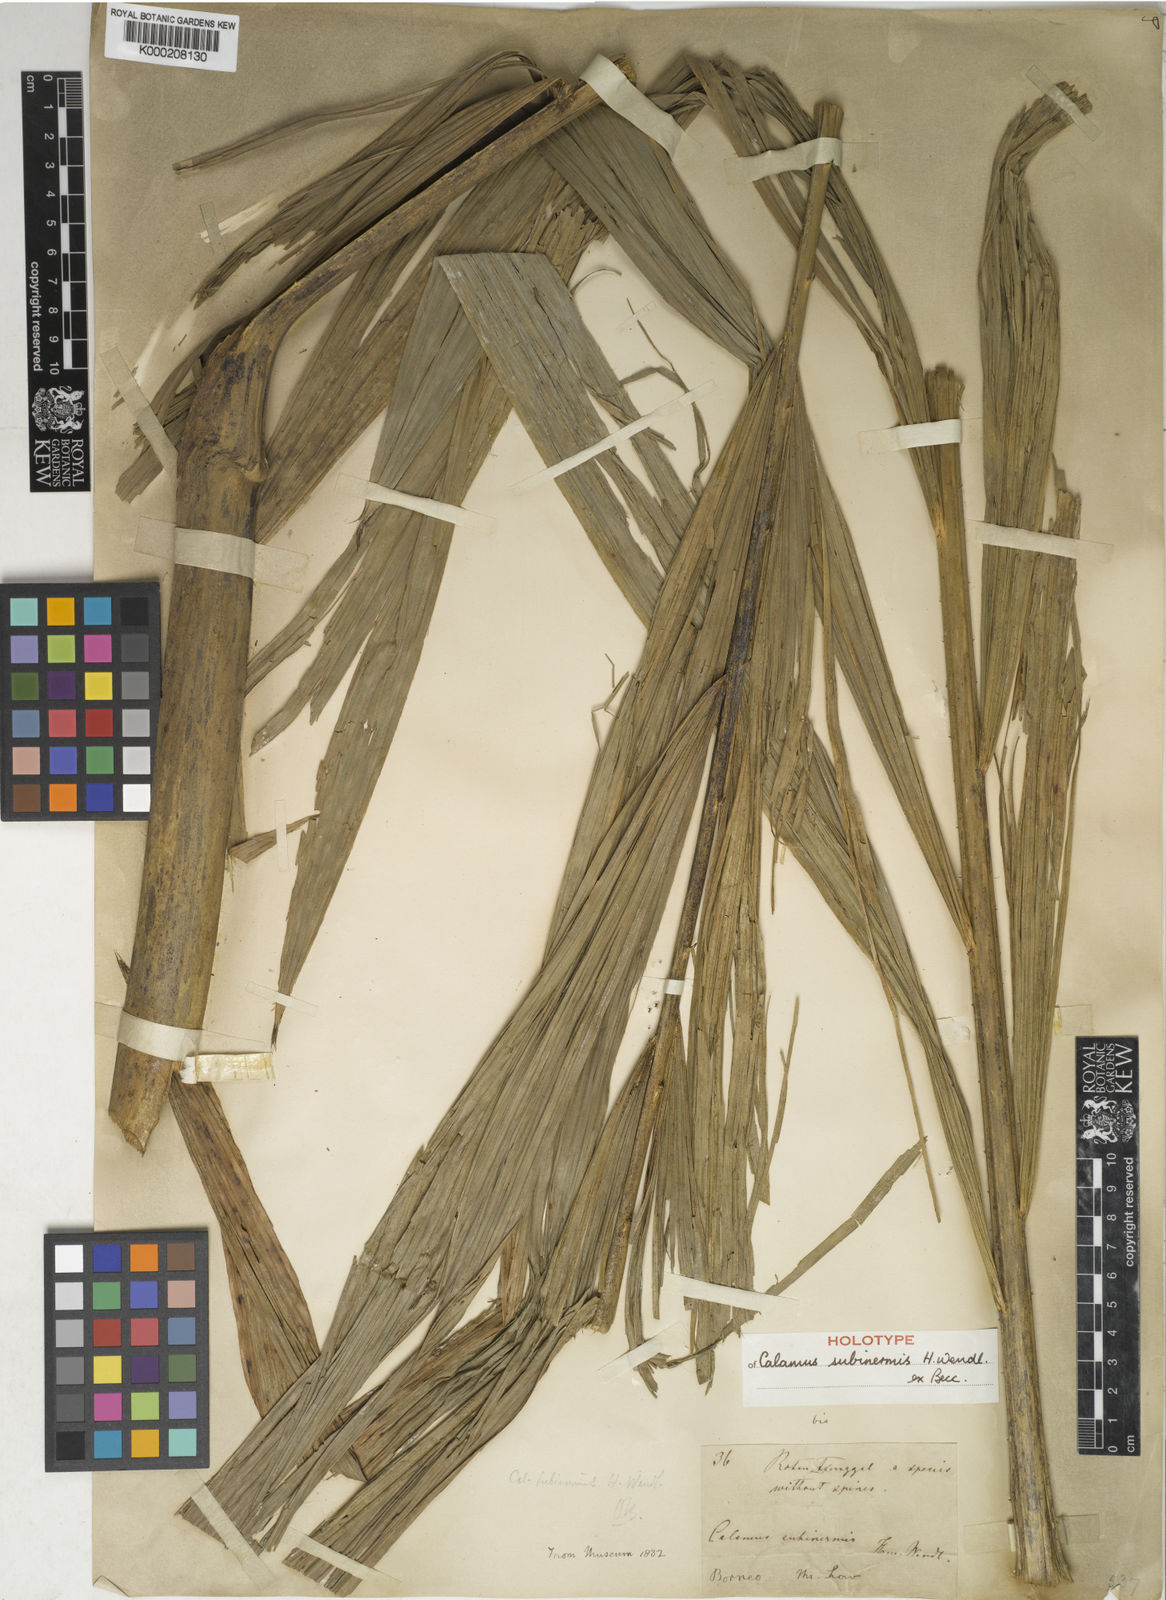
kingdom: Plantae
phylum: Tracheophyta
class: Liliopsida
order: Arecales
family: Arecaceae
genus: Calamus
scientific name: Calamus moseleyanus
